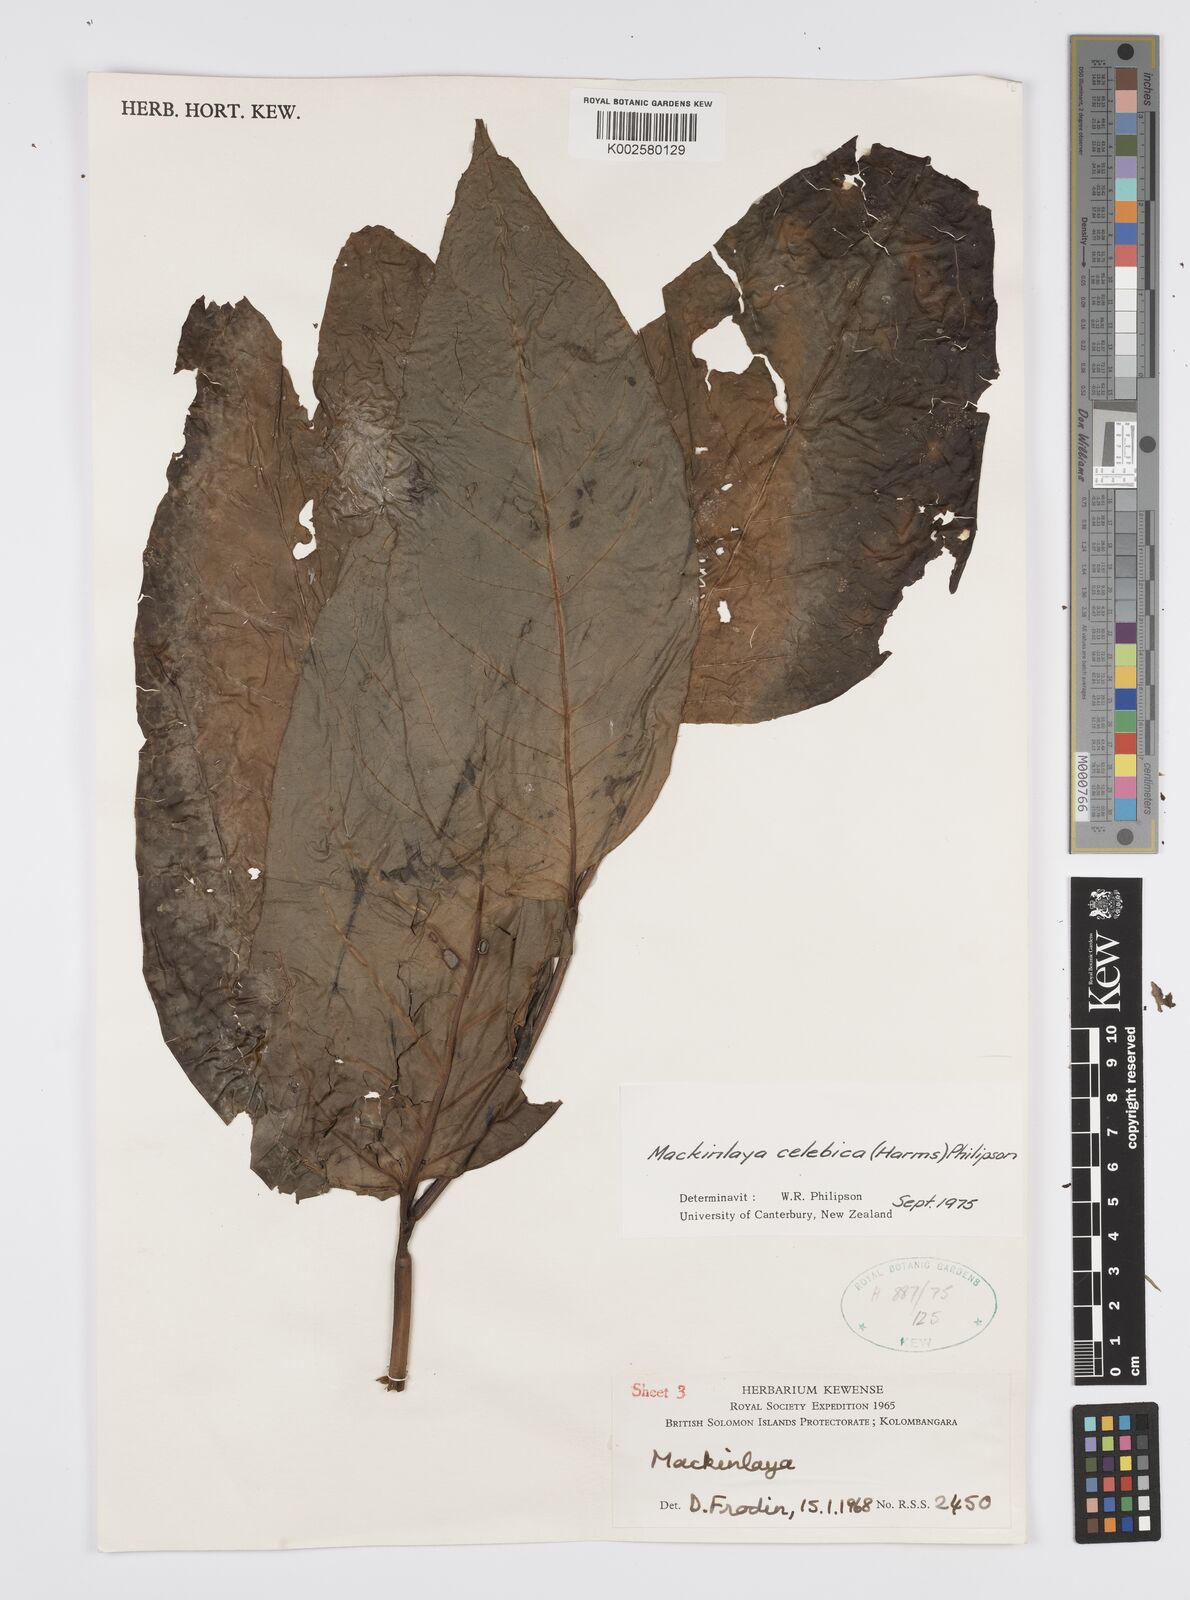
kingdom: Plantae
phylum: Tracheophyta
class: Magnoliopsida
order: Apiales
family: Apiaceae
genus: Mackinlaya
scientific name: Mackinlaya celebica
